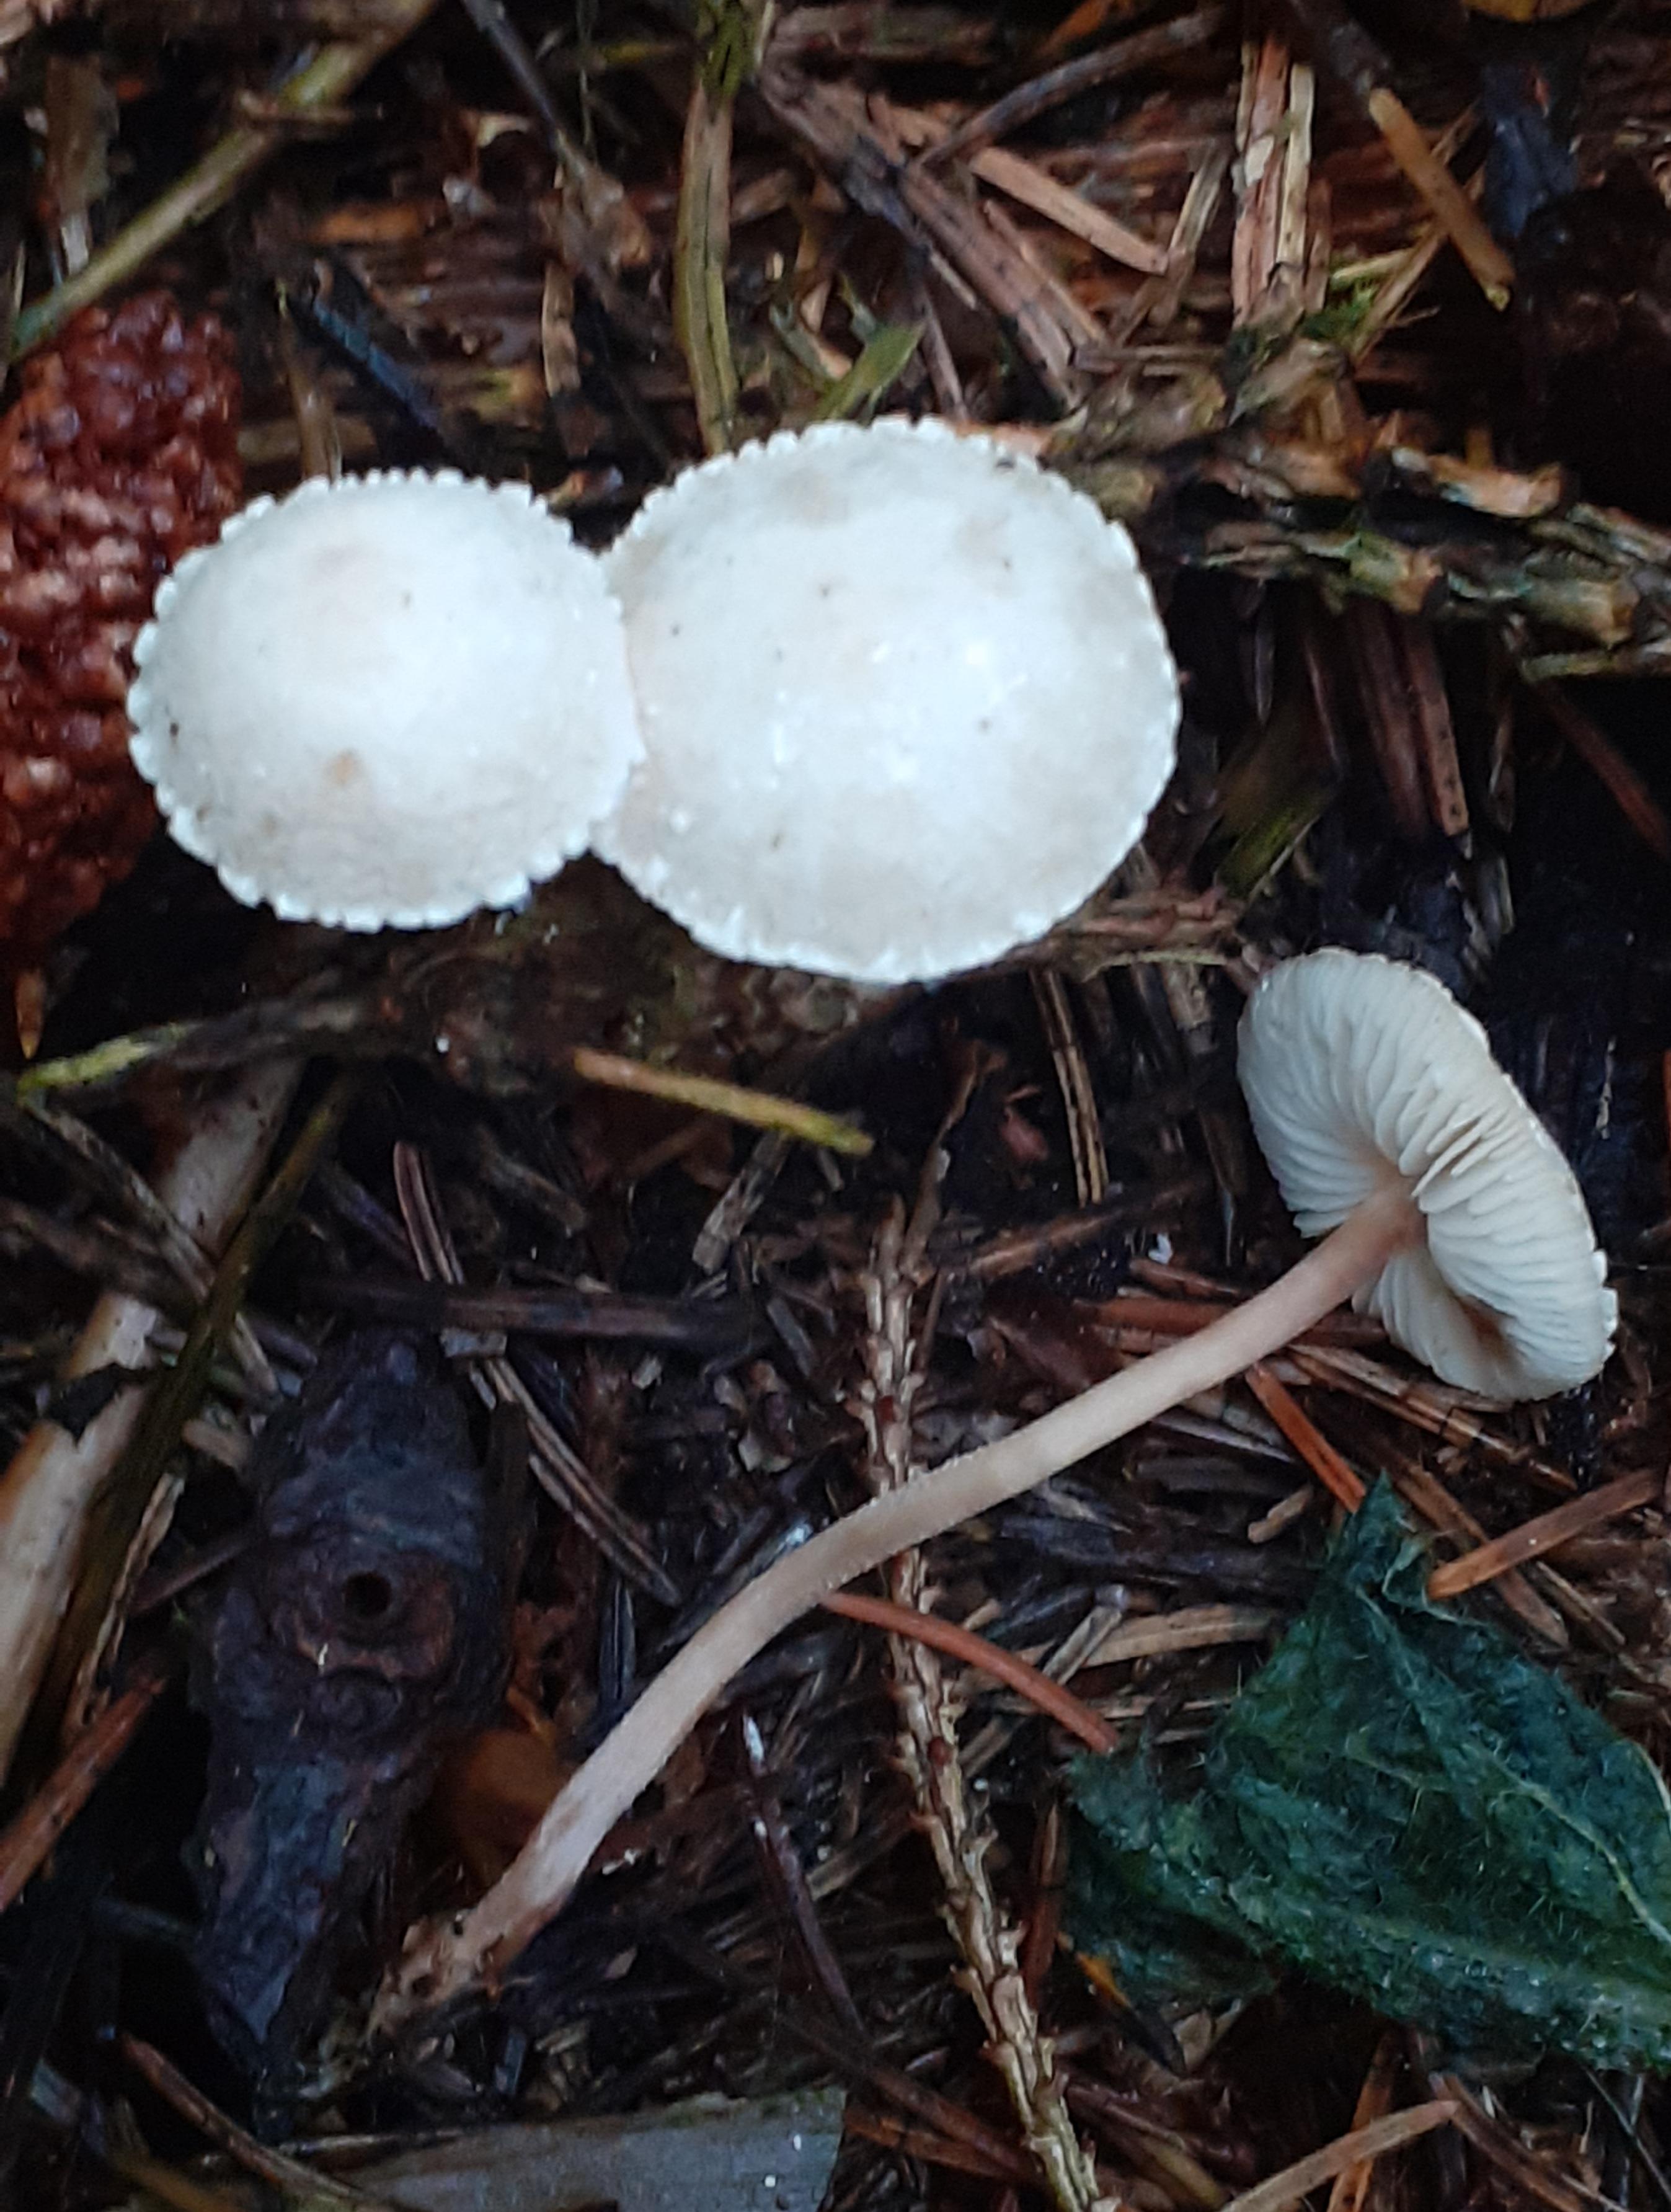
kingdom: Fungi
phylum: Basidiomycota
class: Agaricomycetes
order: Agaricales
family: Agaricaceae
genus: Cystolepiota
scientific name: Cystolepiota seminuda
